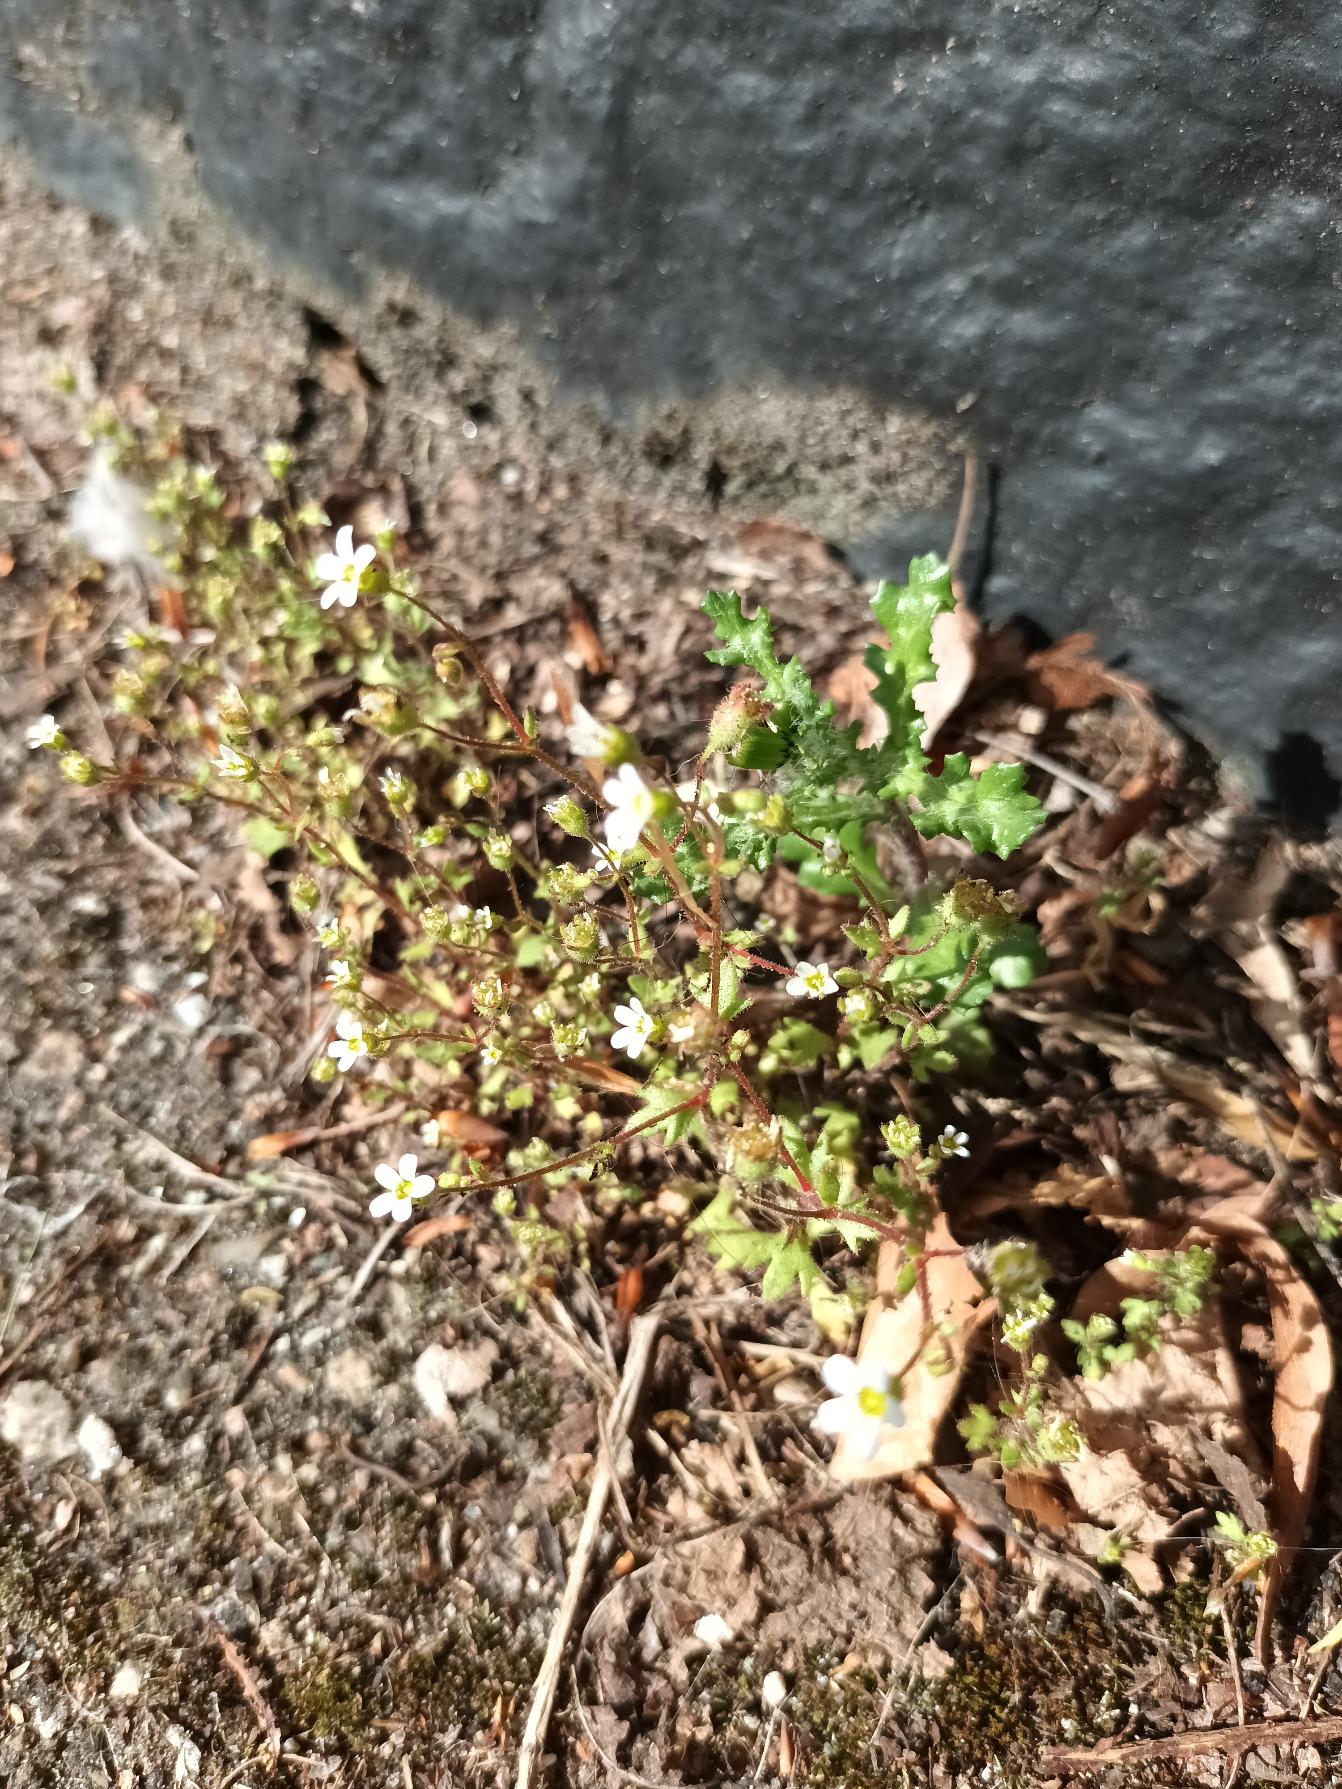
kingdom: Plantae
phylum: Tracheophyta
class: Magnoliopsida
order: Saxifragales
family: Saxifragaceae
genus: Saxifraga
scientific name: Saxifraga tridactylites
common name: Trekløft-stenbræk
